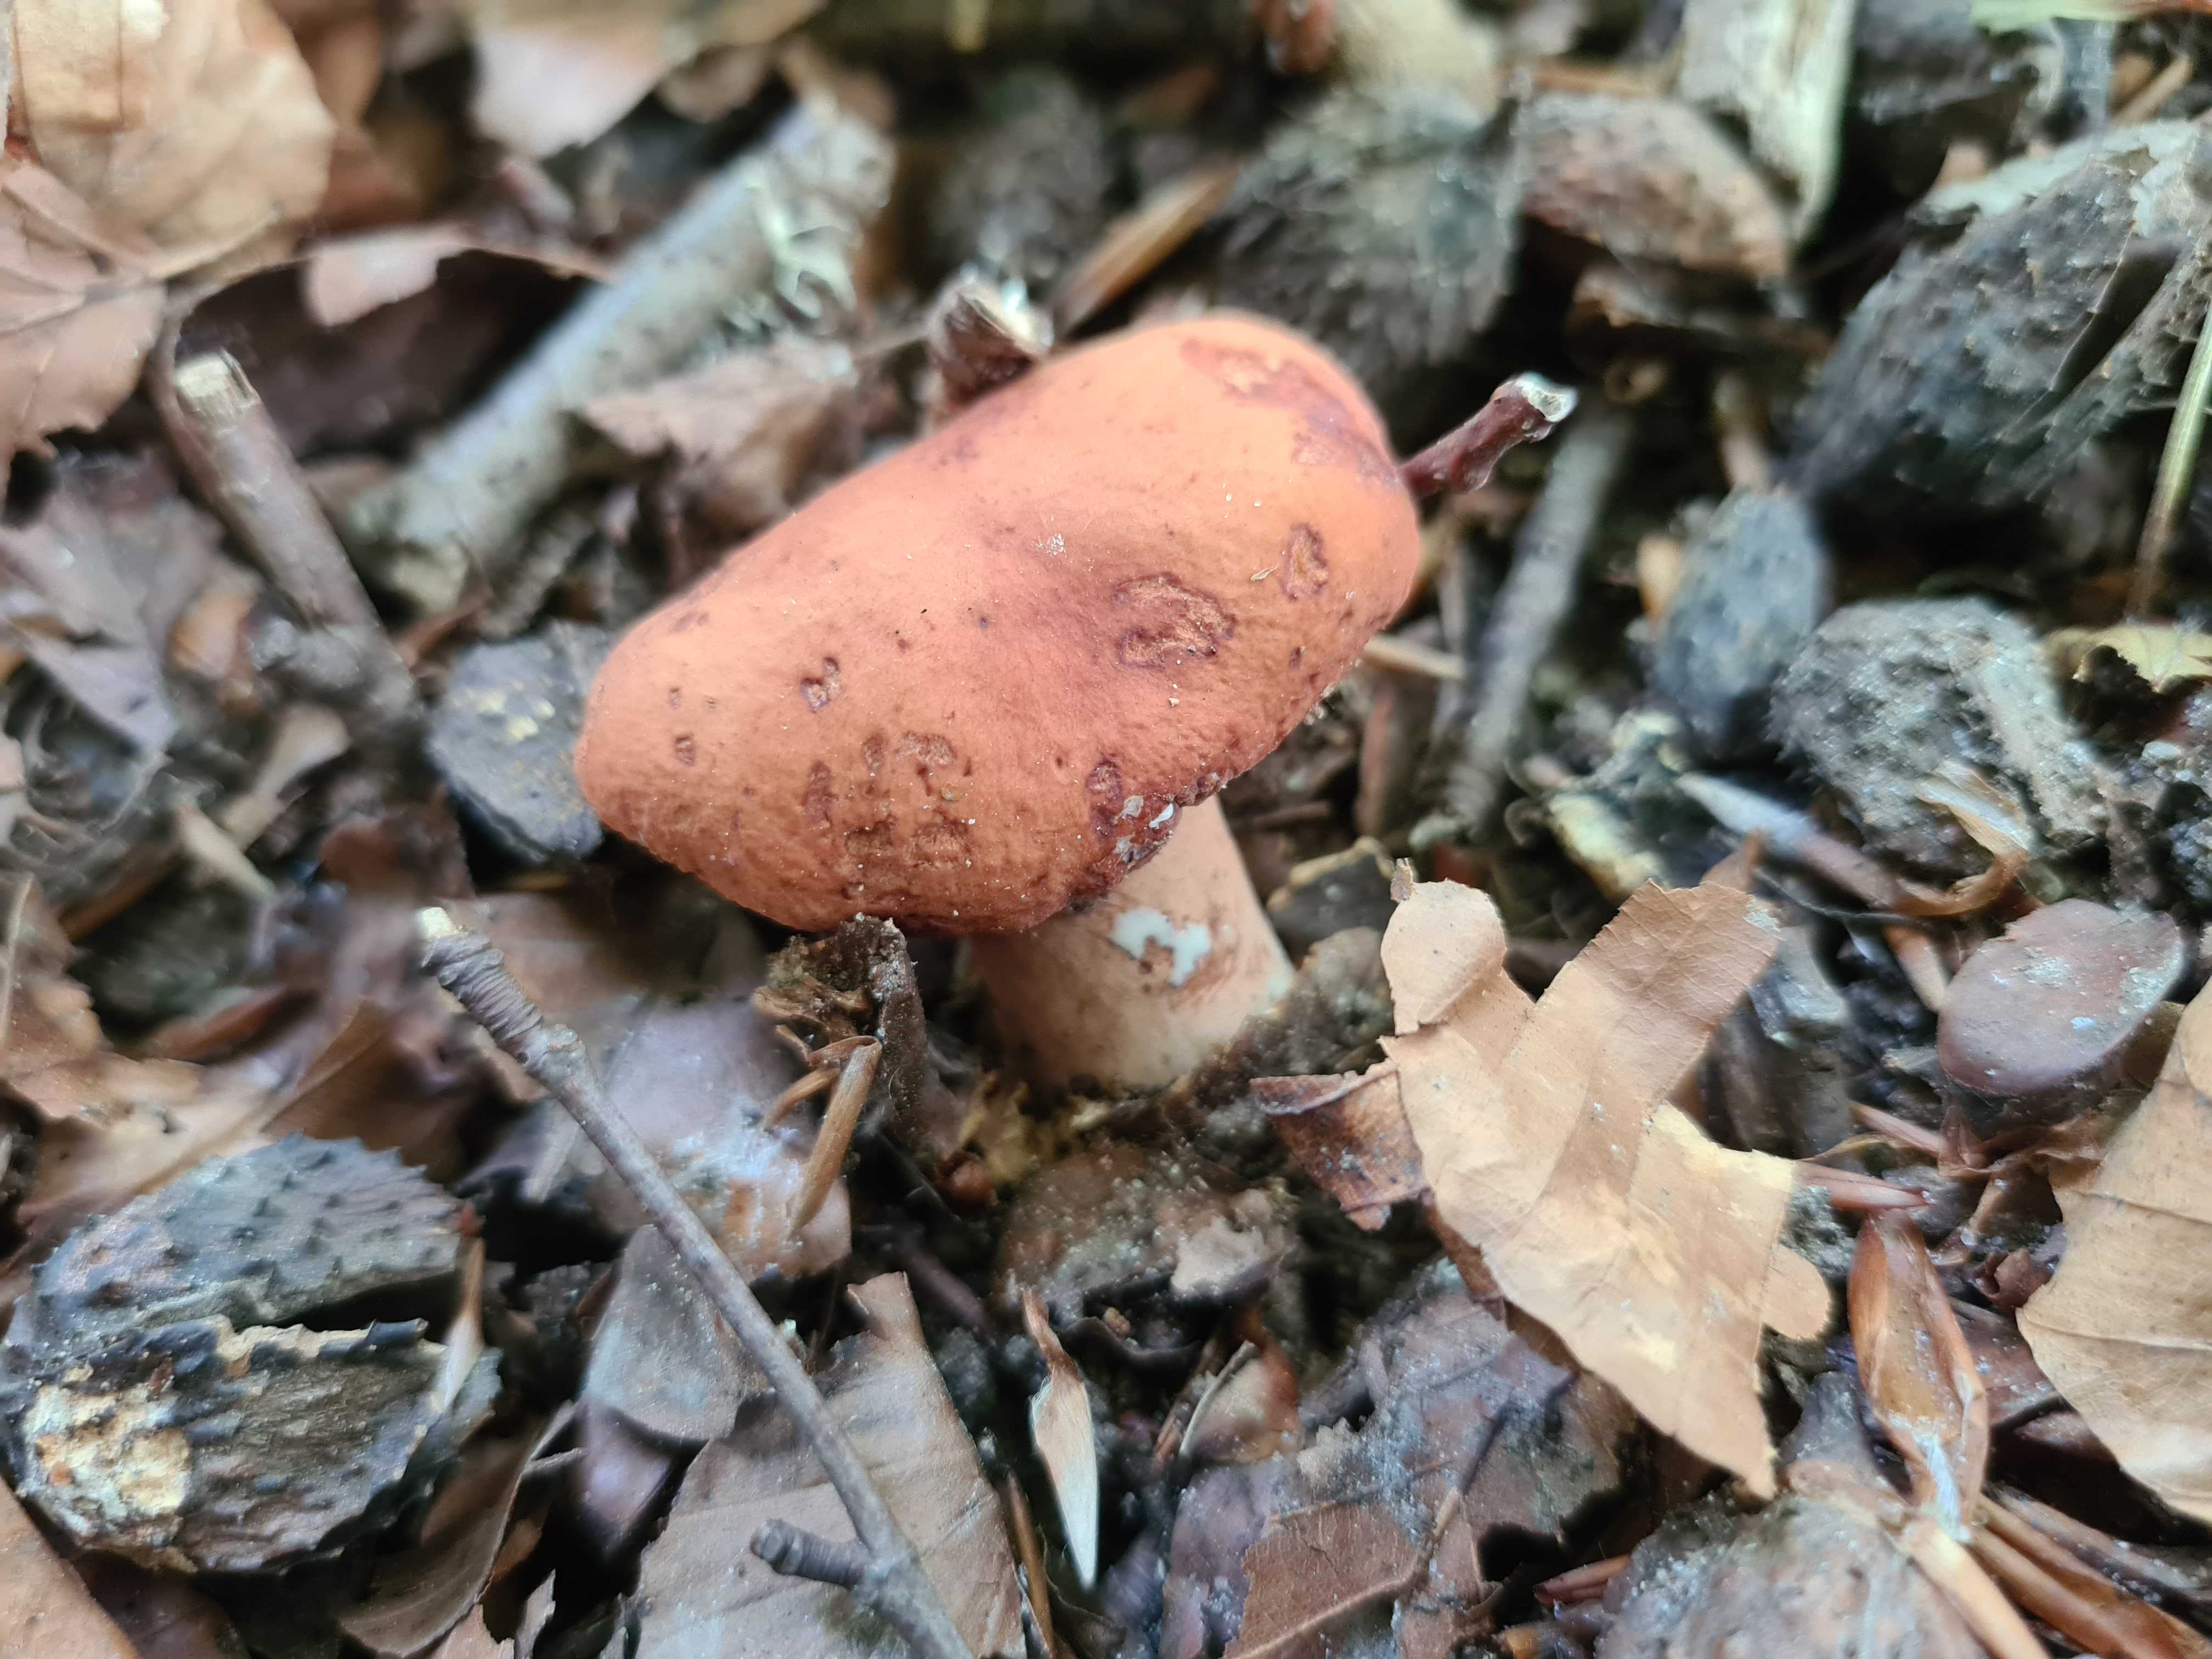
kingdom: Fungi
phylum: Basidiomycota
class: Agaricomycetes
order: Russulales
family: Russulaceae
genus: Lactarius
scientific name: Lactarius rubrocinctus
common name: halsbånd-mælkehat
